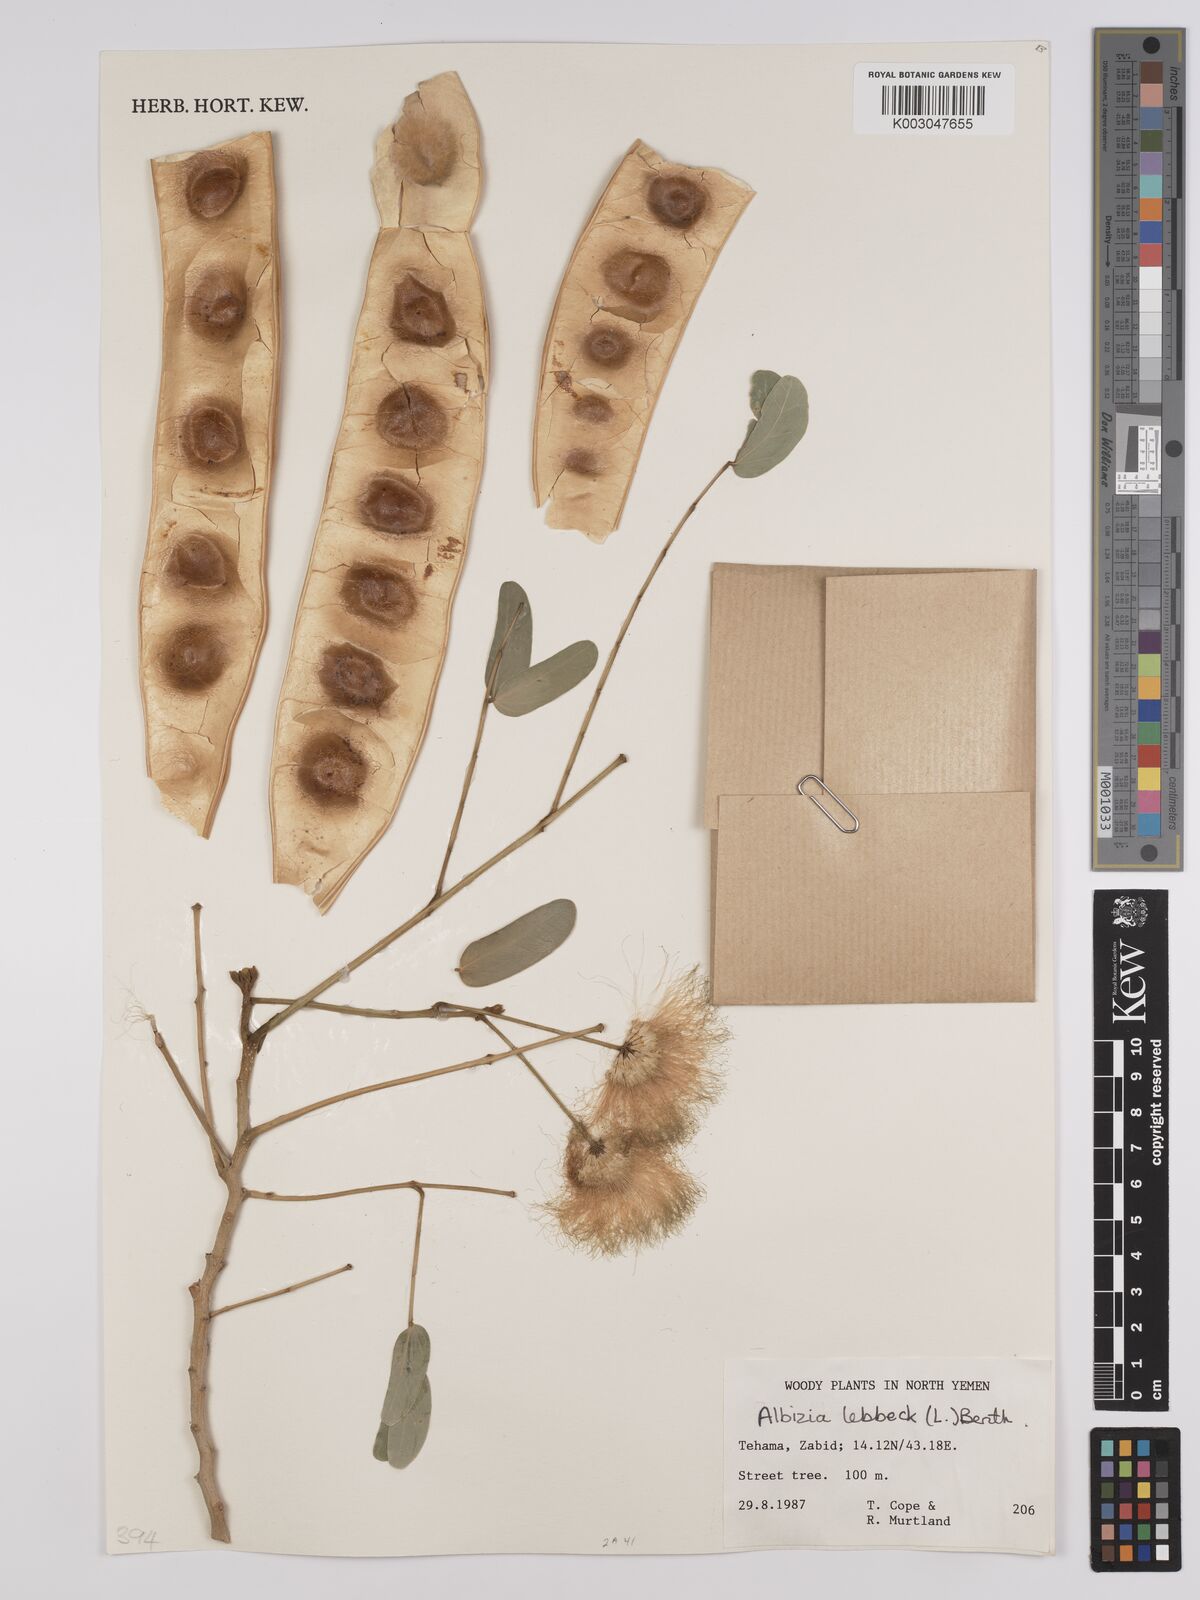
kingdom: Plantae
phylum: Tracheophyta
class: Magnoliopsida
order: Fabales
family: Fabaceae
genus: Albizia
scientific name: Albizia lebbeck
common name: Woman's tongue
